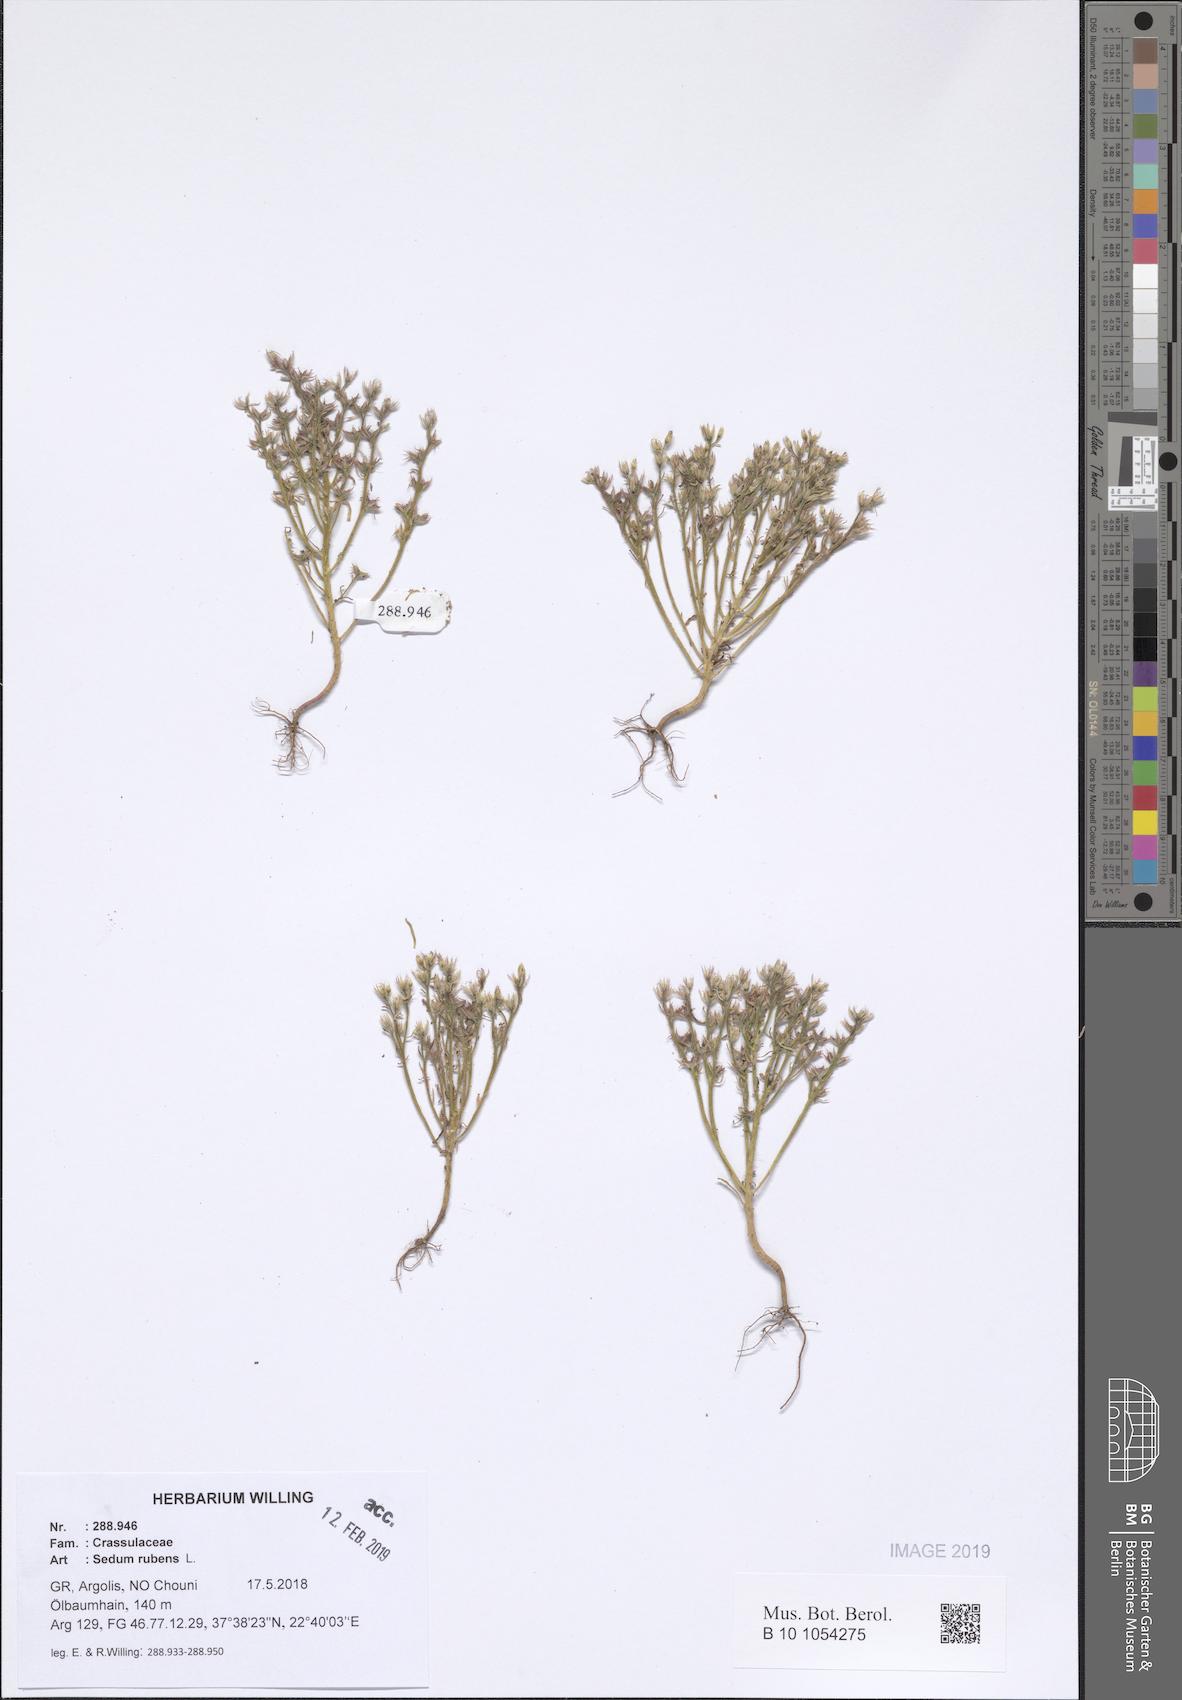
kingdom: Plantae
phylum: Tracheophyta
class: Magnoliopsida
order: Saxifragales
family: Crassulaceae
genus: Sedum
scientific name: Sedum rubens
